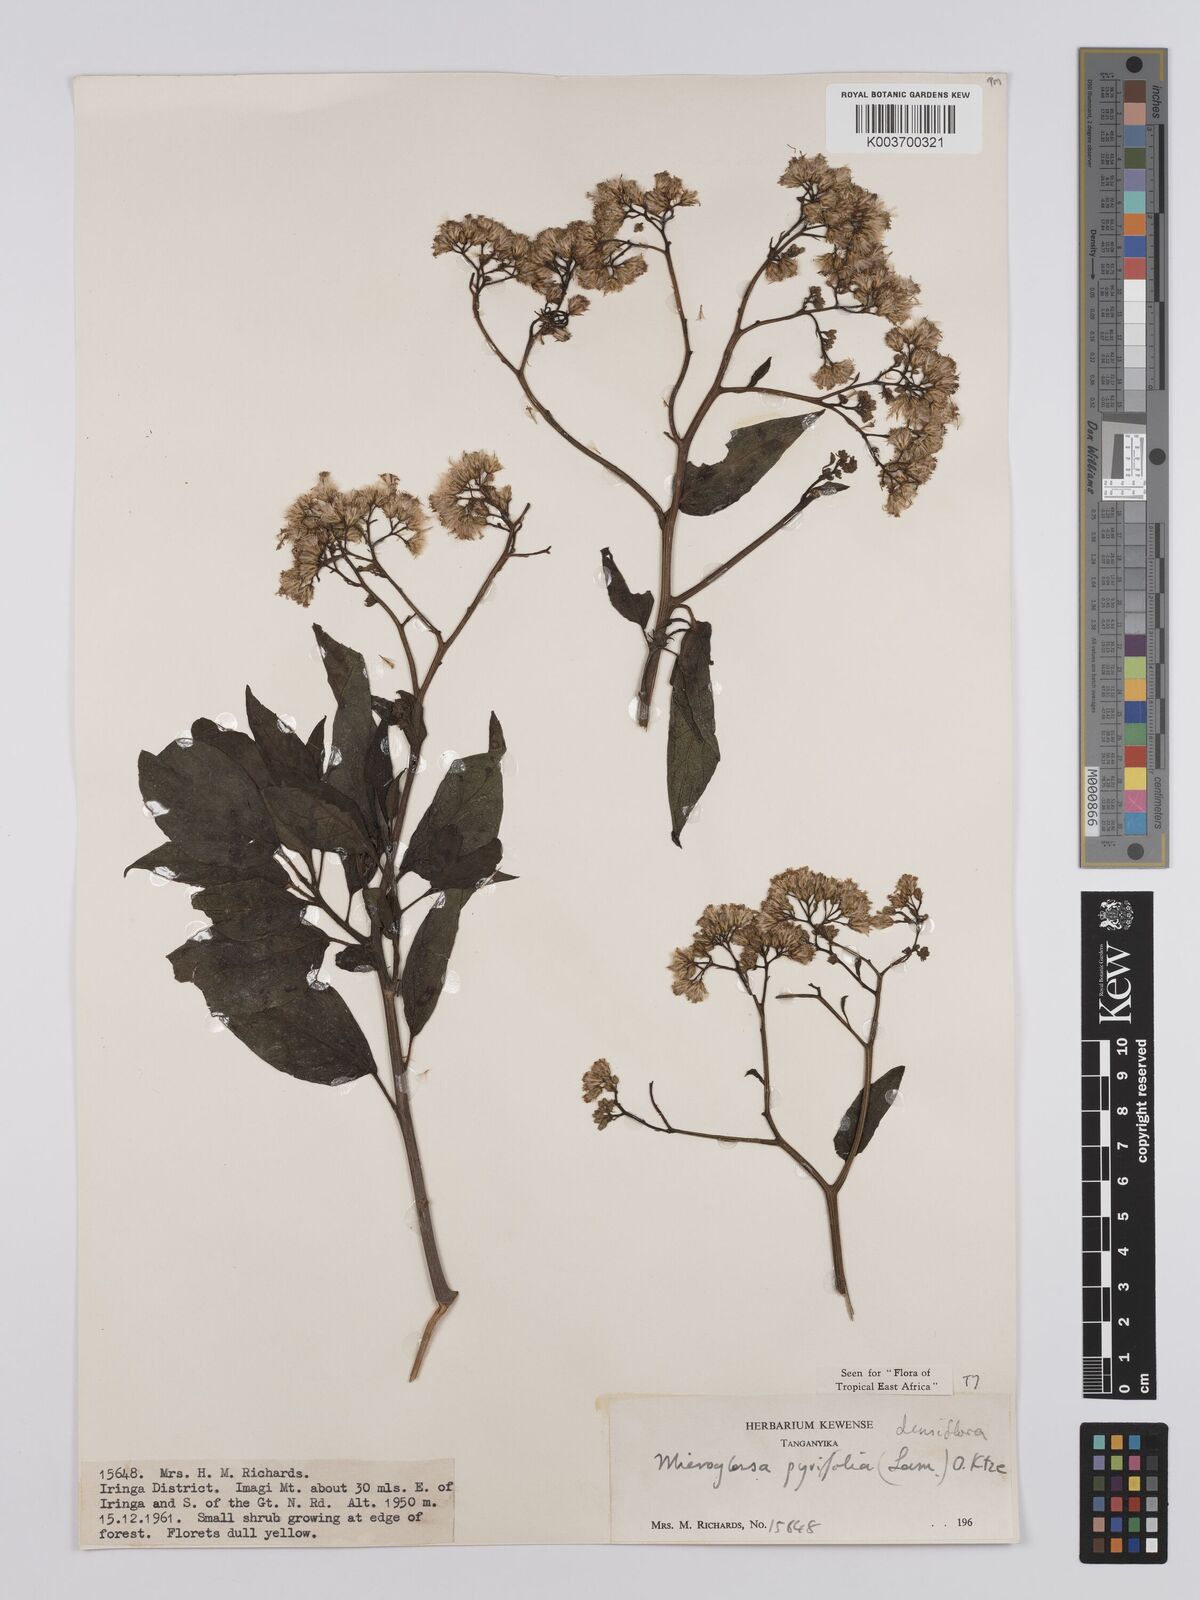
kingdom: Plantae
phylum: Tracheophyta
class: Magnoliopsida
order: Asterales
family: Asteraceae
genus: Microglossa
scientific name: Microglossa densiflora
